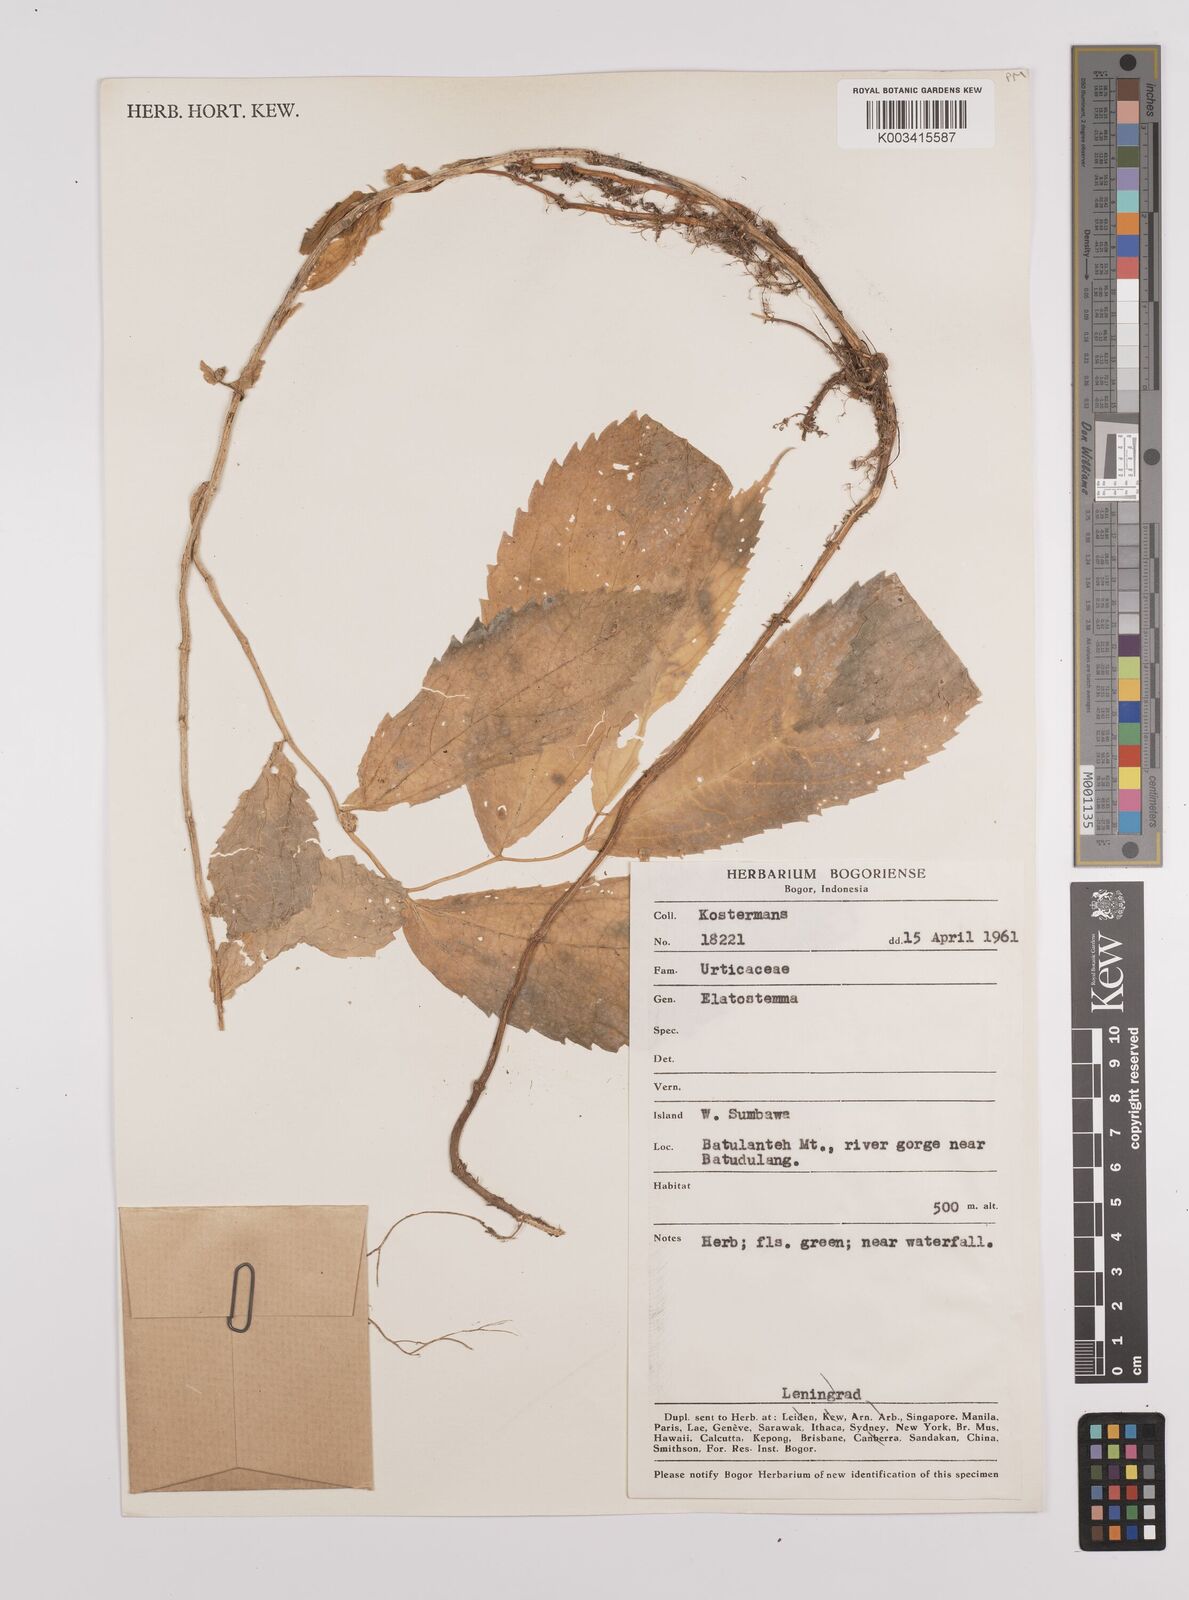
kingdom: Plantae
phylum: Tracheophyta
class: Magnoliopsida
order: Rosales
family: Urticaceae
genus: Elatostema
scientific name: Elatostema
